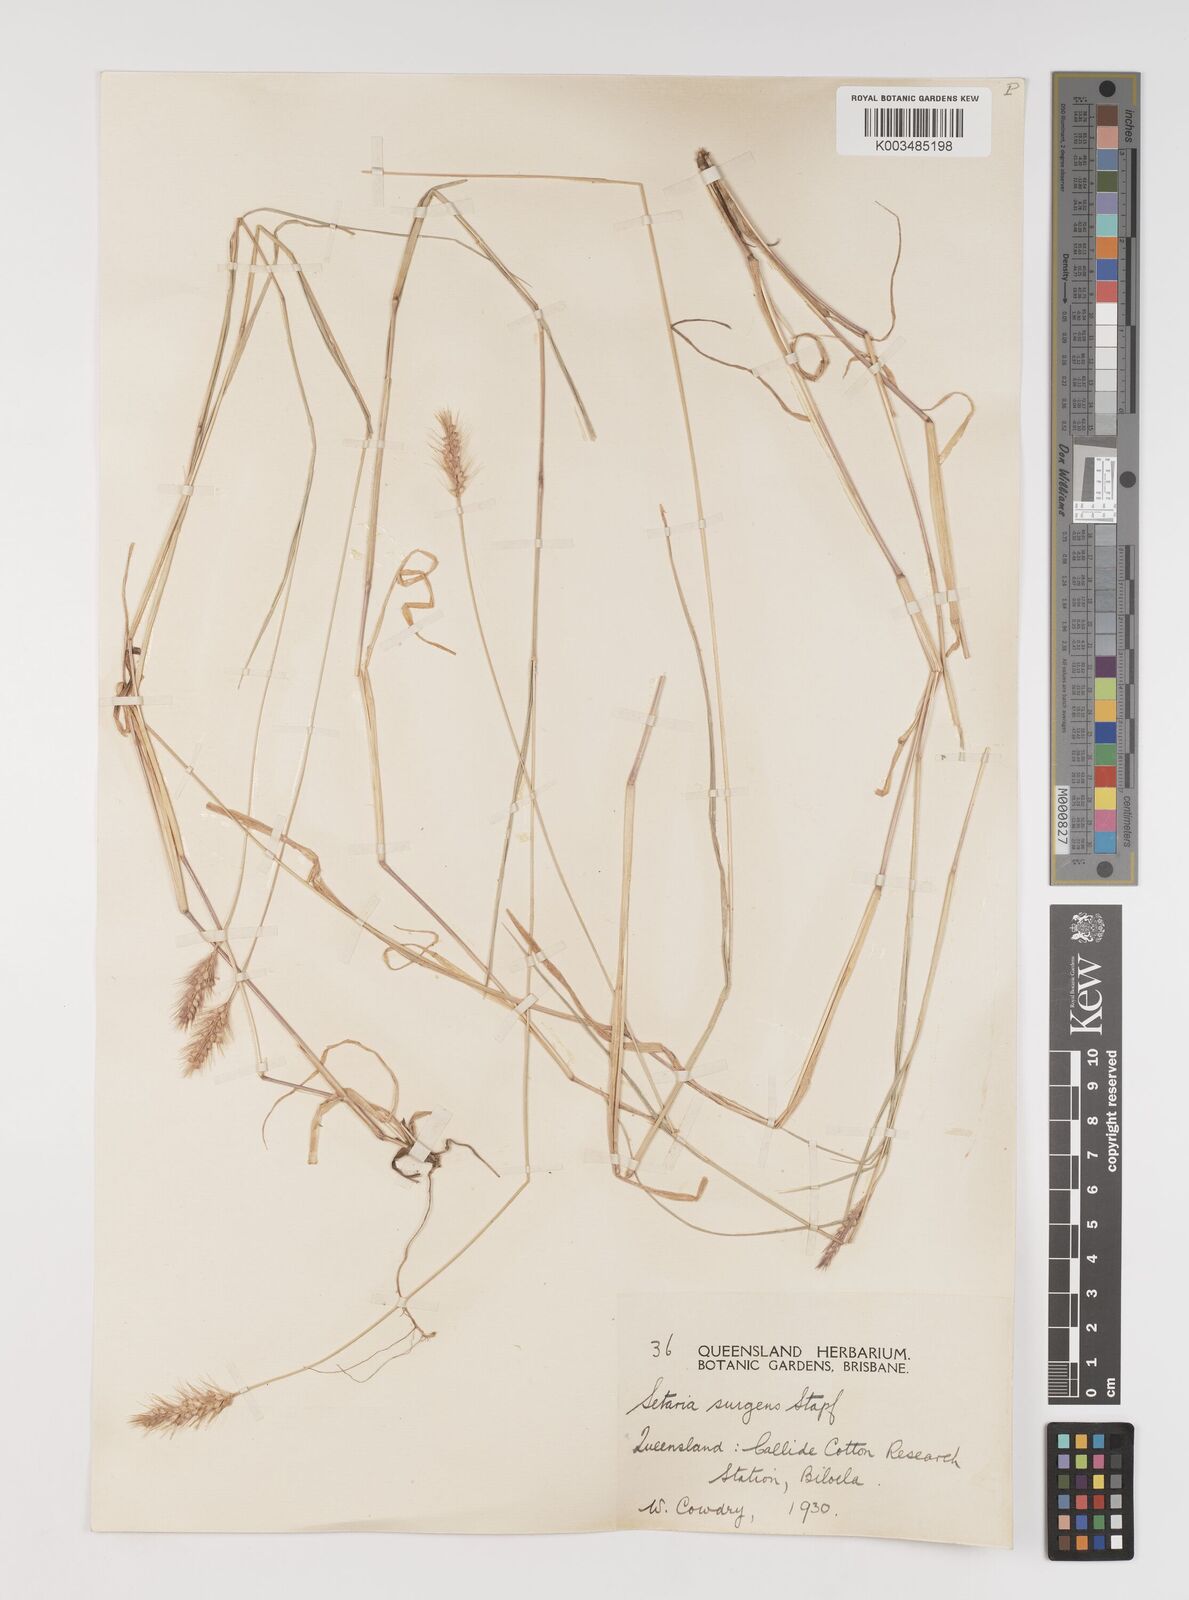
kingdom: Plantae
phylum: Tracheophyta
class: Liliopsida
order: Poales
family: Poaceae
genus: Setaria
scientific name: Setaria apiculata
